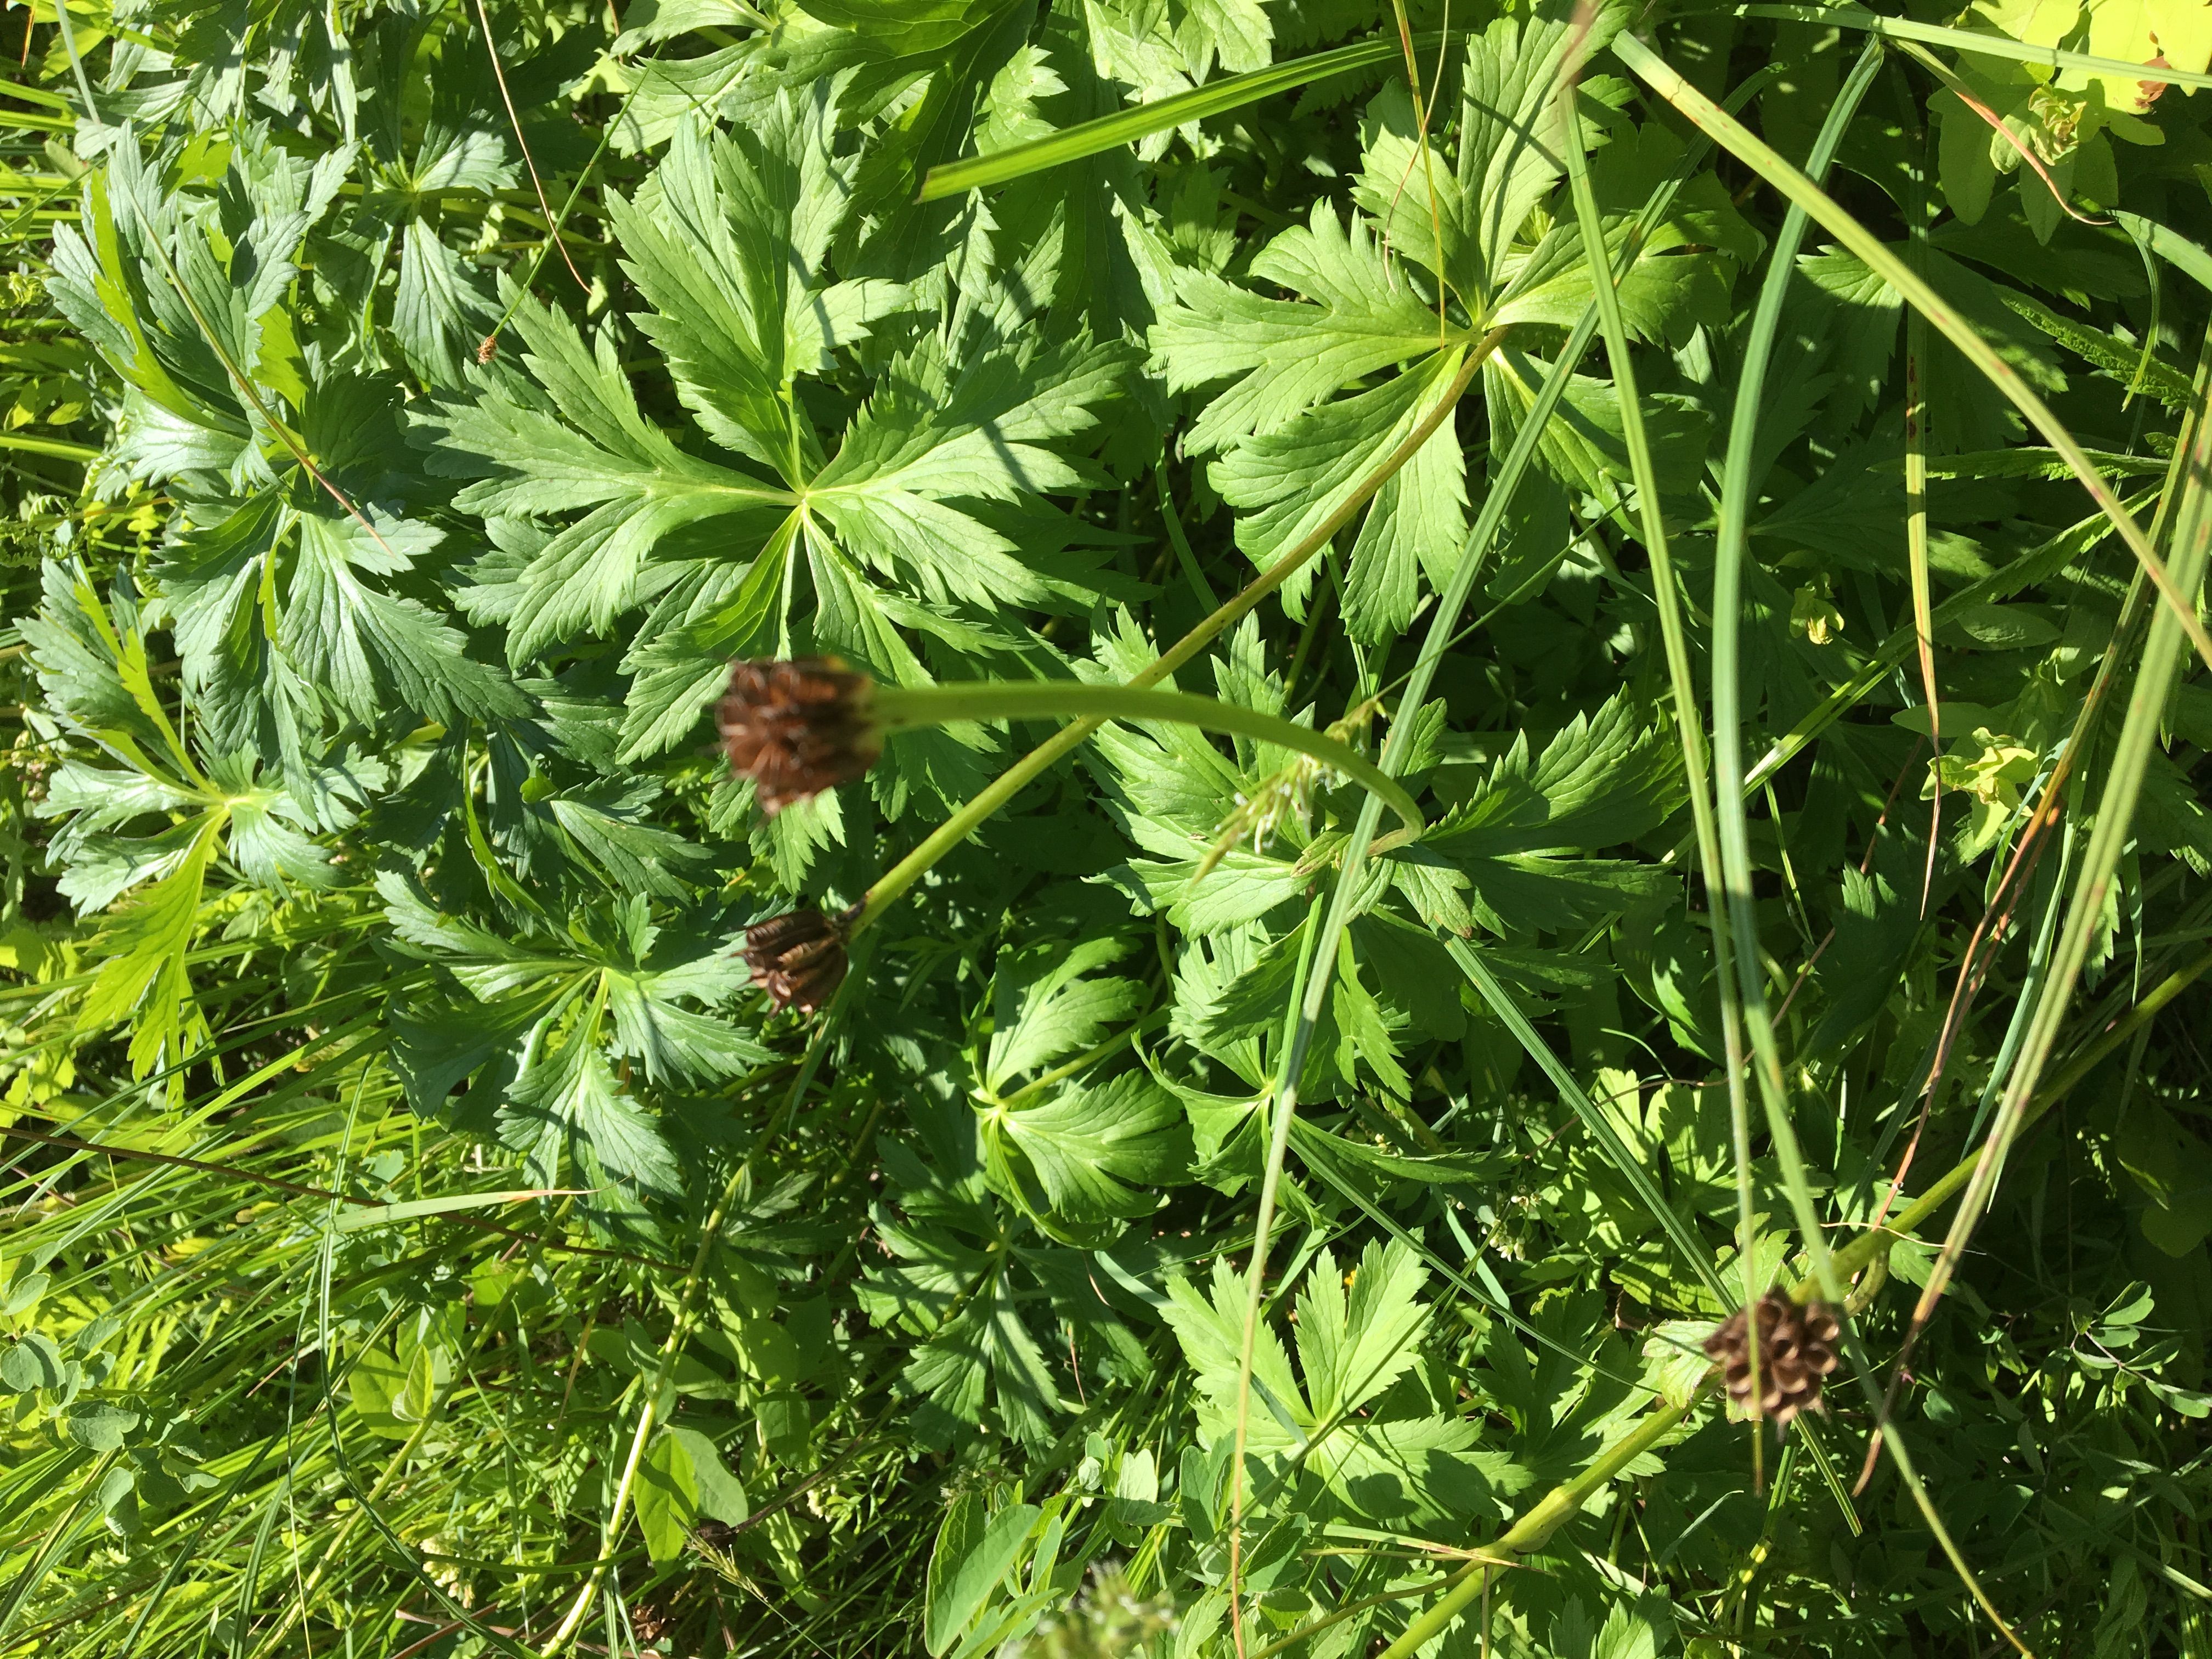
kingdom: Plantae
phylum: Tracheophyta
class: Magnoliopsida
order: Ranunculales
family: Ranunculaceae
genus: Trollius
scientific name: Trollius laxus
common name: American globeflower
